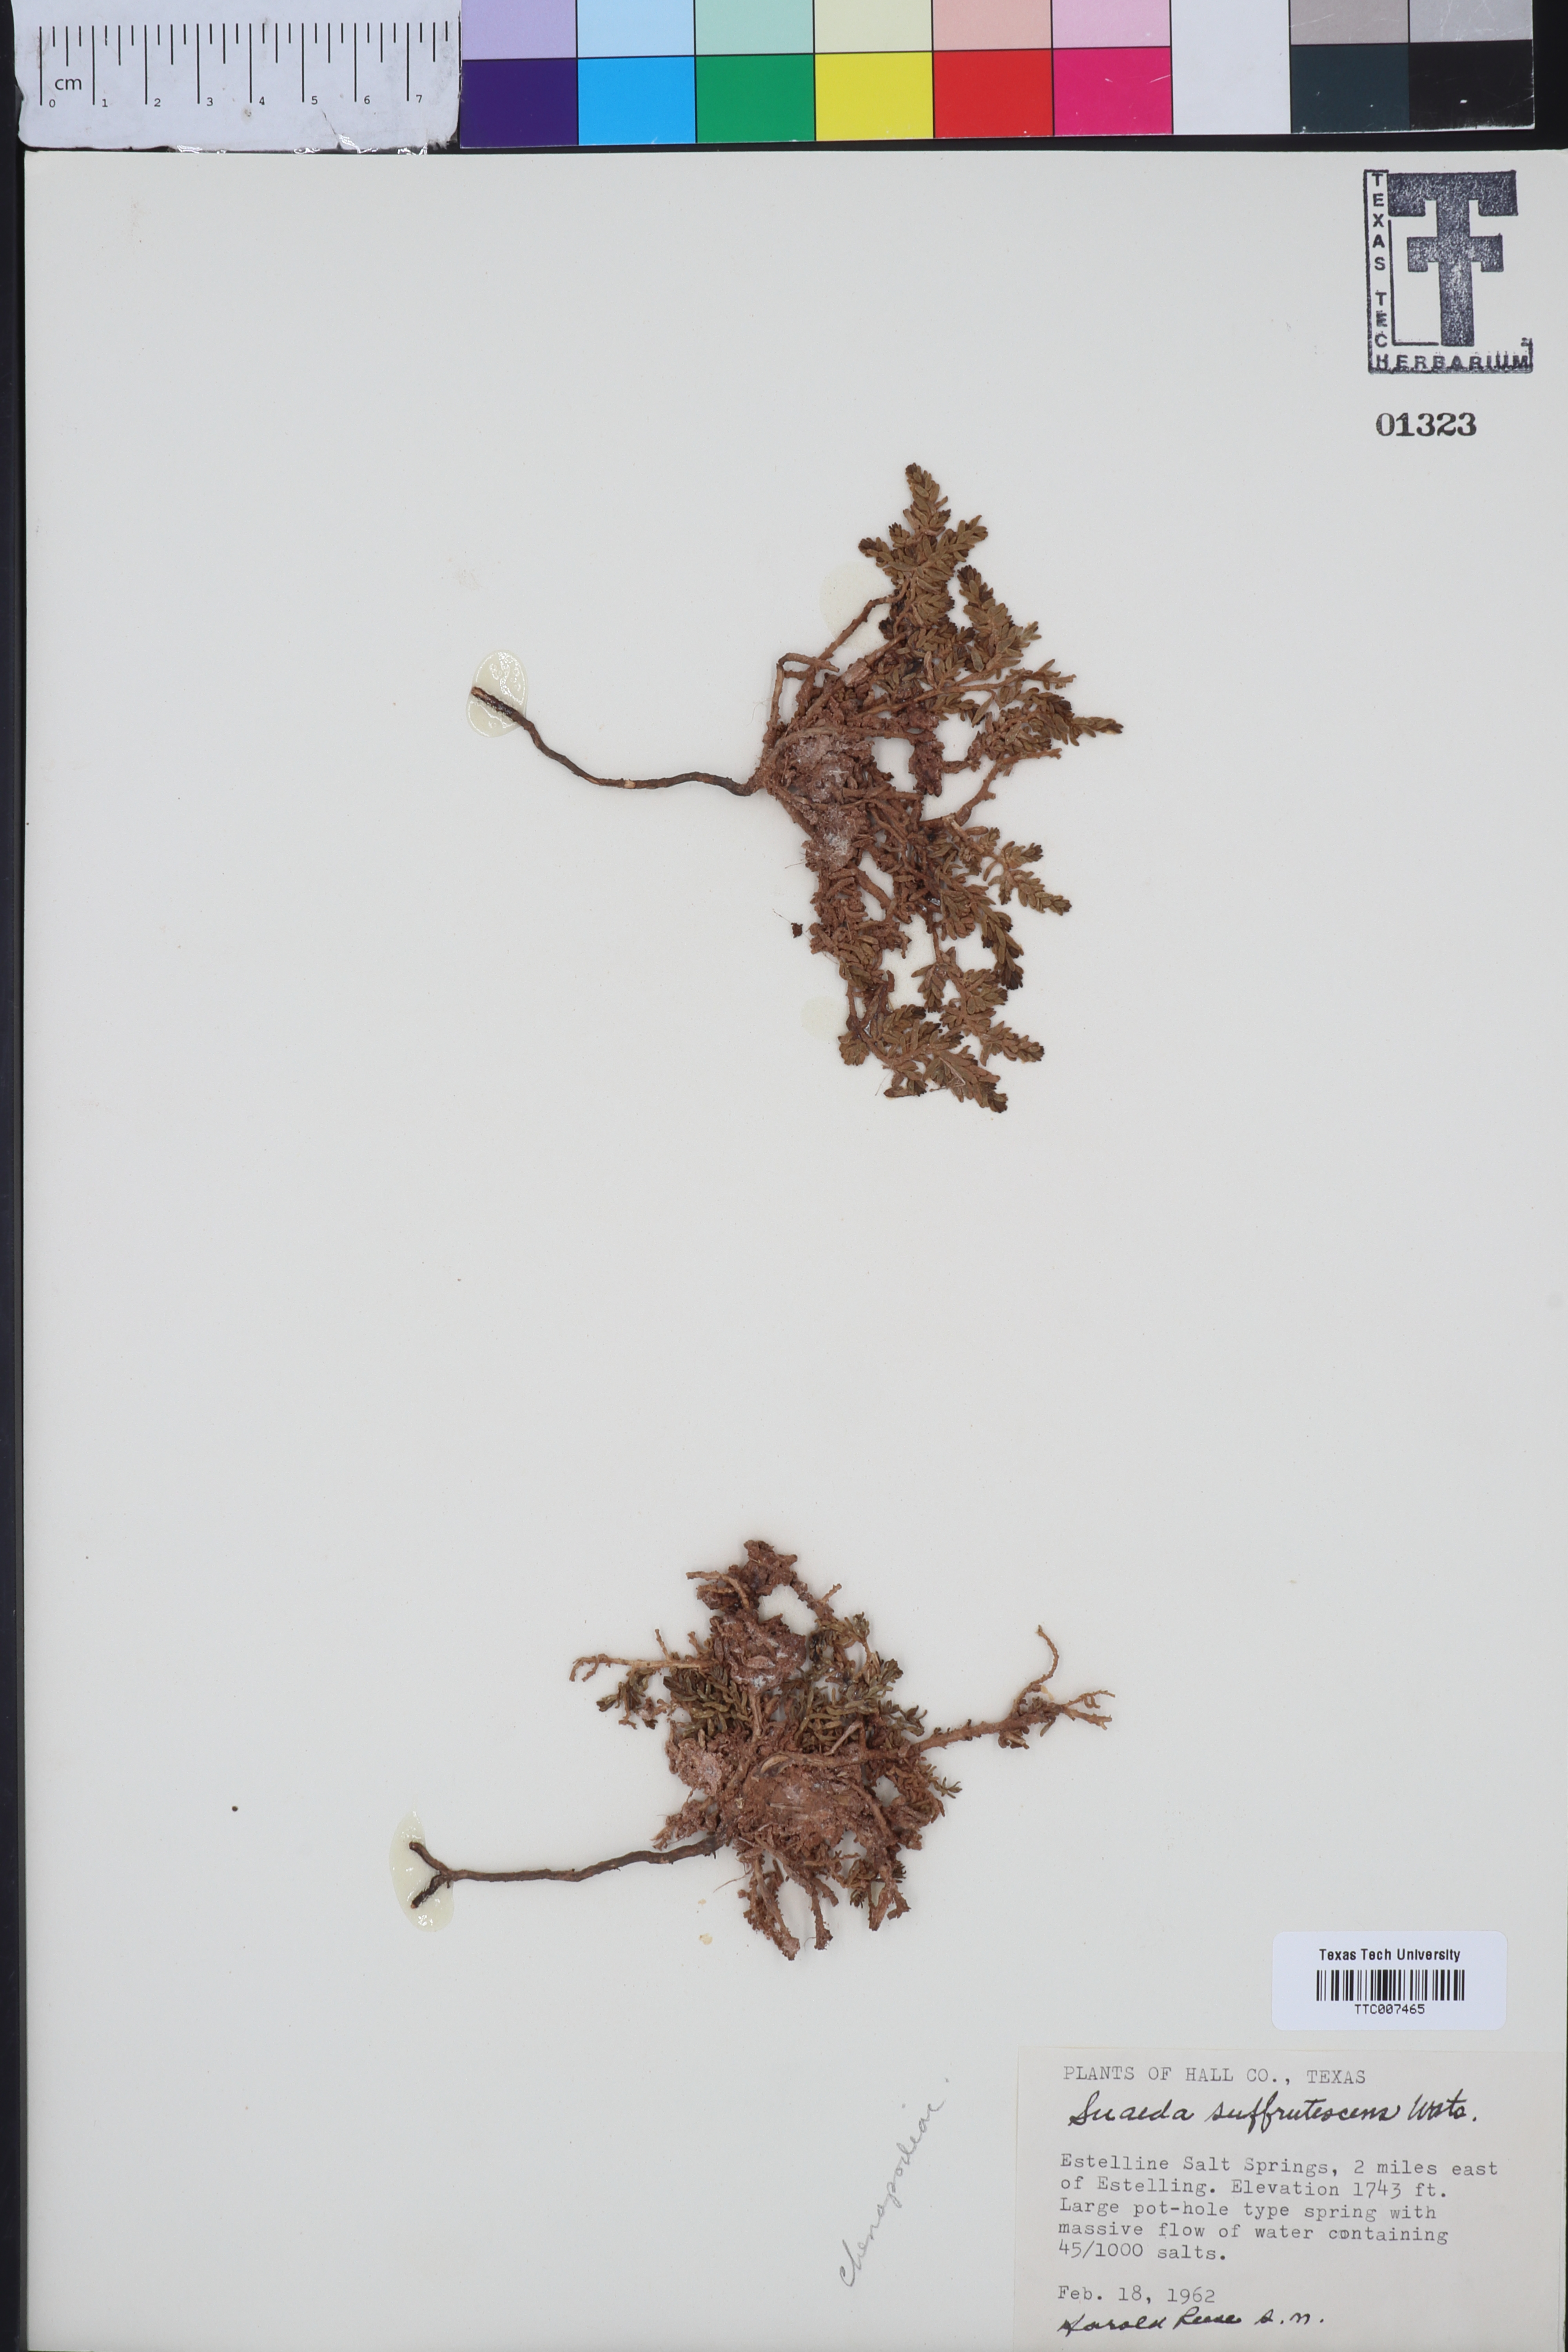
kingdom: Plantae
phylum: Tracheophyta
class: Magnoliopsida
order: Caryophyllales
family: Amaranthaceae
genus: Suaeda
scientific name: Suaeda suffrutescens
